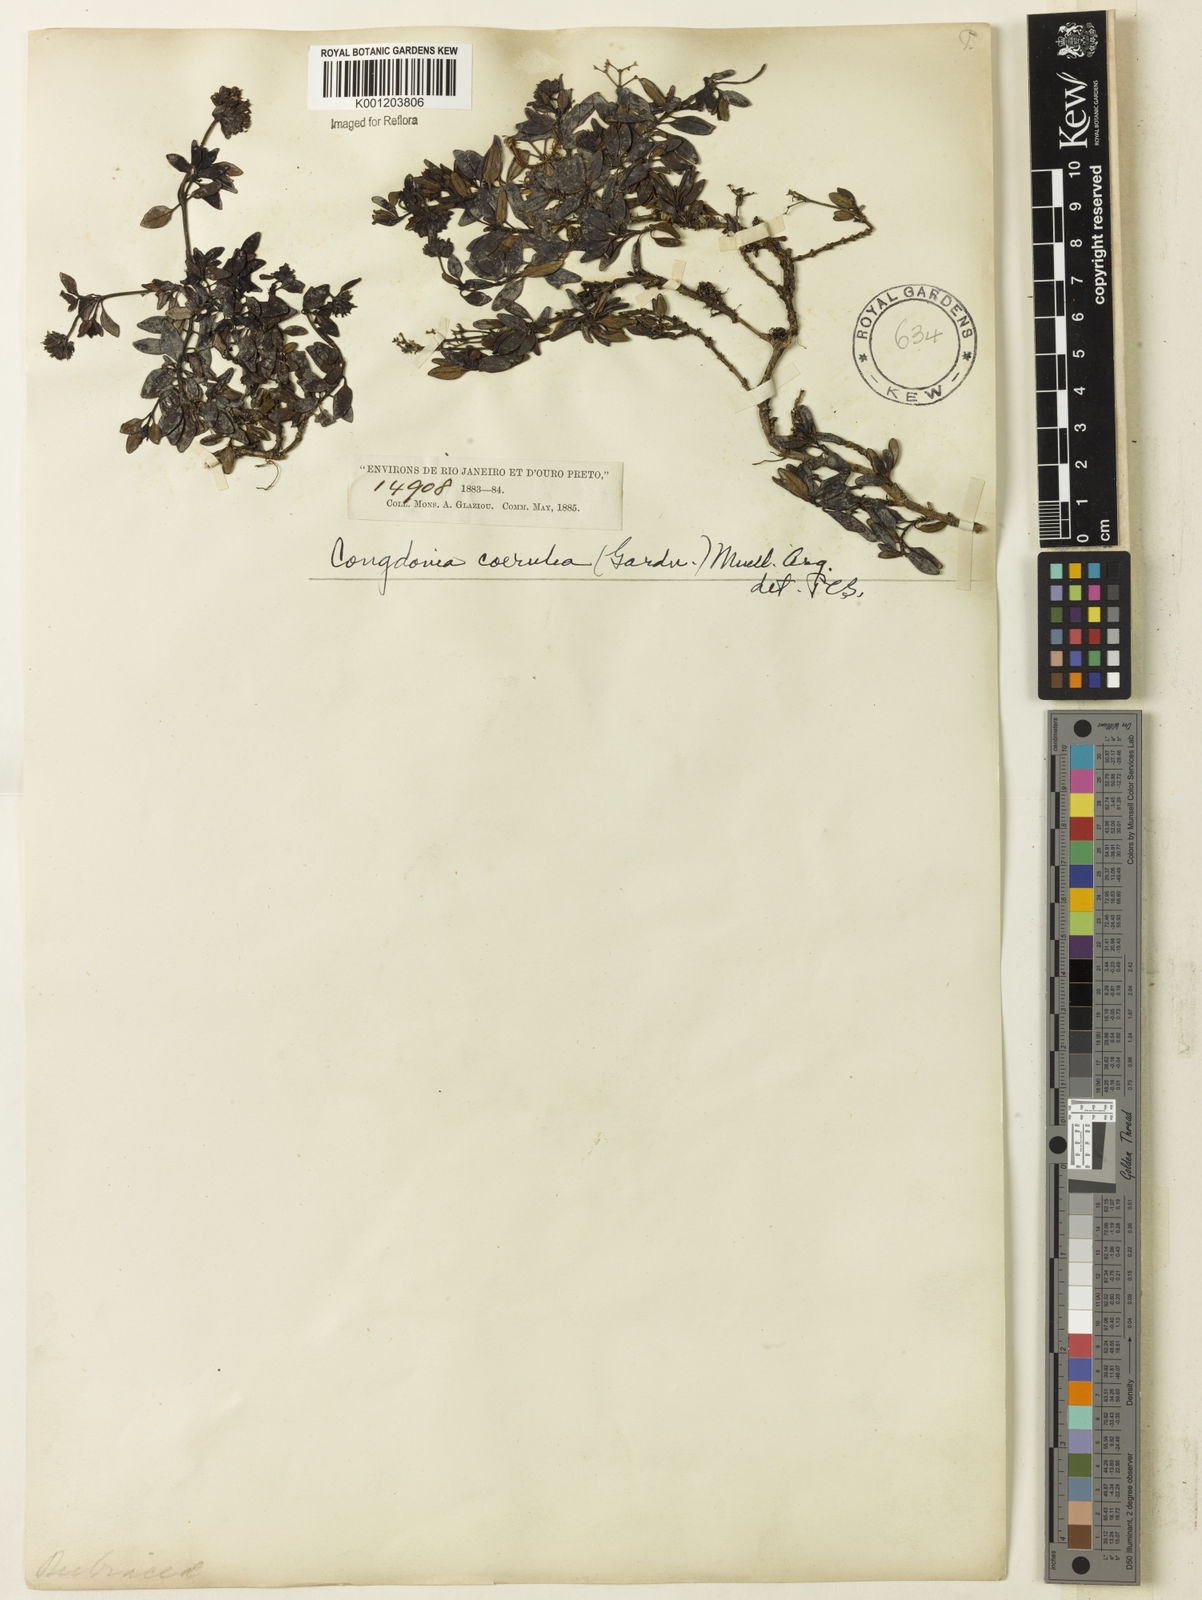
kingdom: Plantae
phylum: Tracheophyta
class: Magnoliopsida
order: Gentianales
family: Rubiaceae
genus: Declieuxia
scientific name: Declieuxia coerulea
